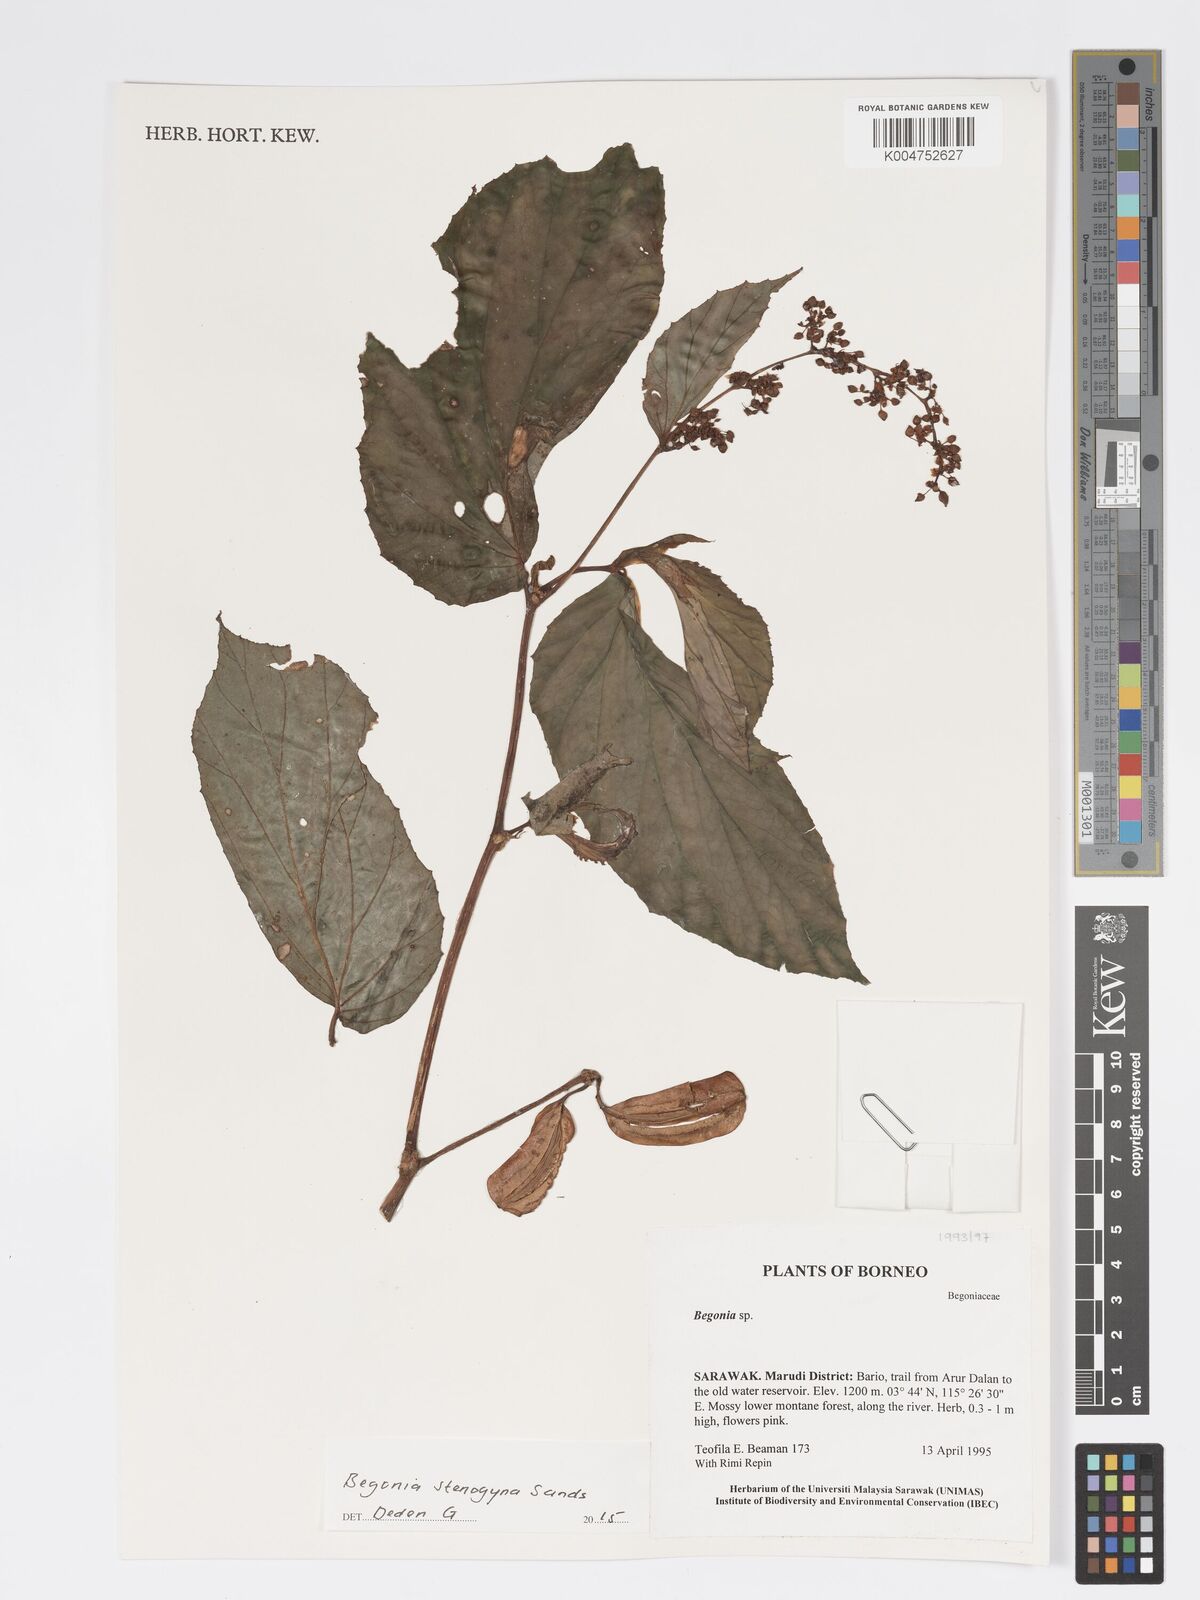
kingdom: Plantae
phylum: Tracheophyta
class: Magnoliopsida
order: Cucurbitales
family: Begoniaceae
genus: Begonia
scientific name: Begonia stenogyna
